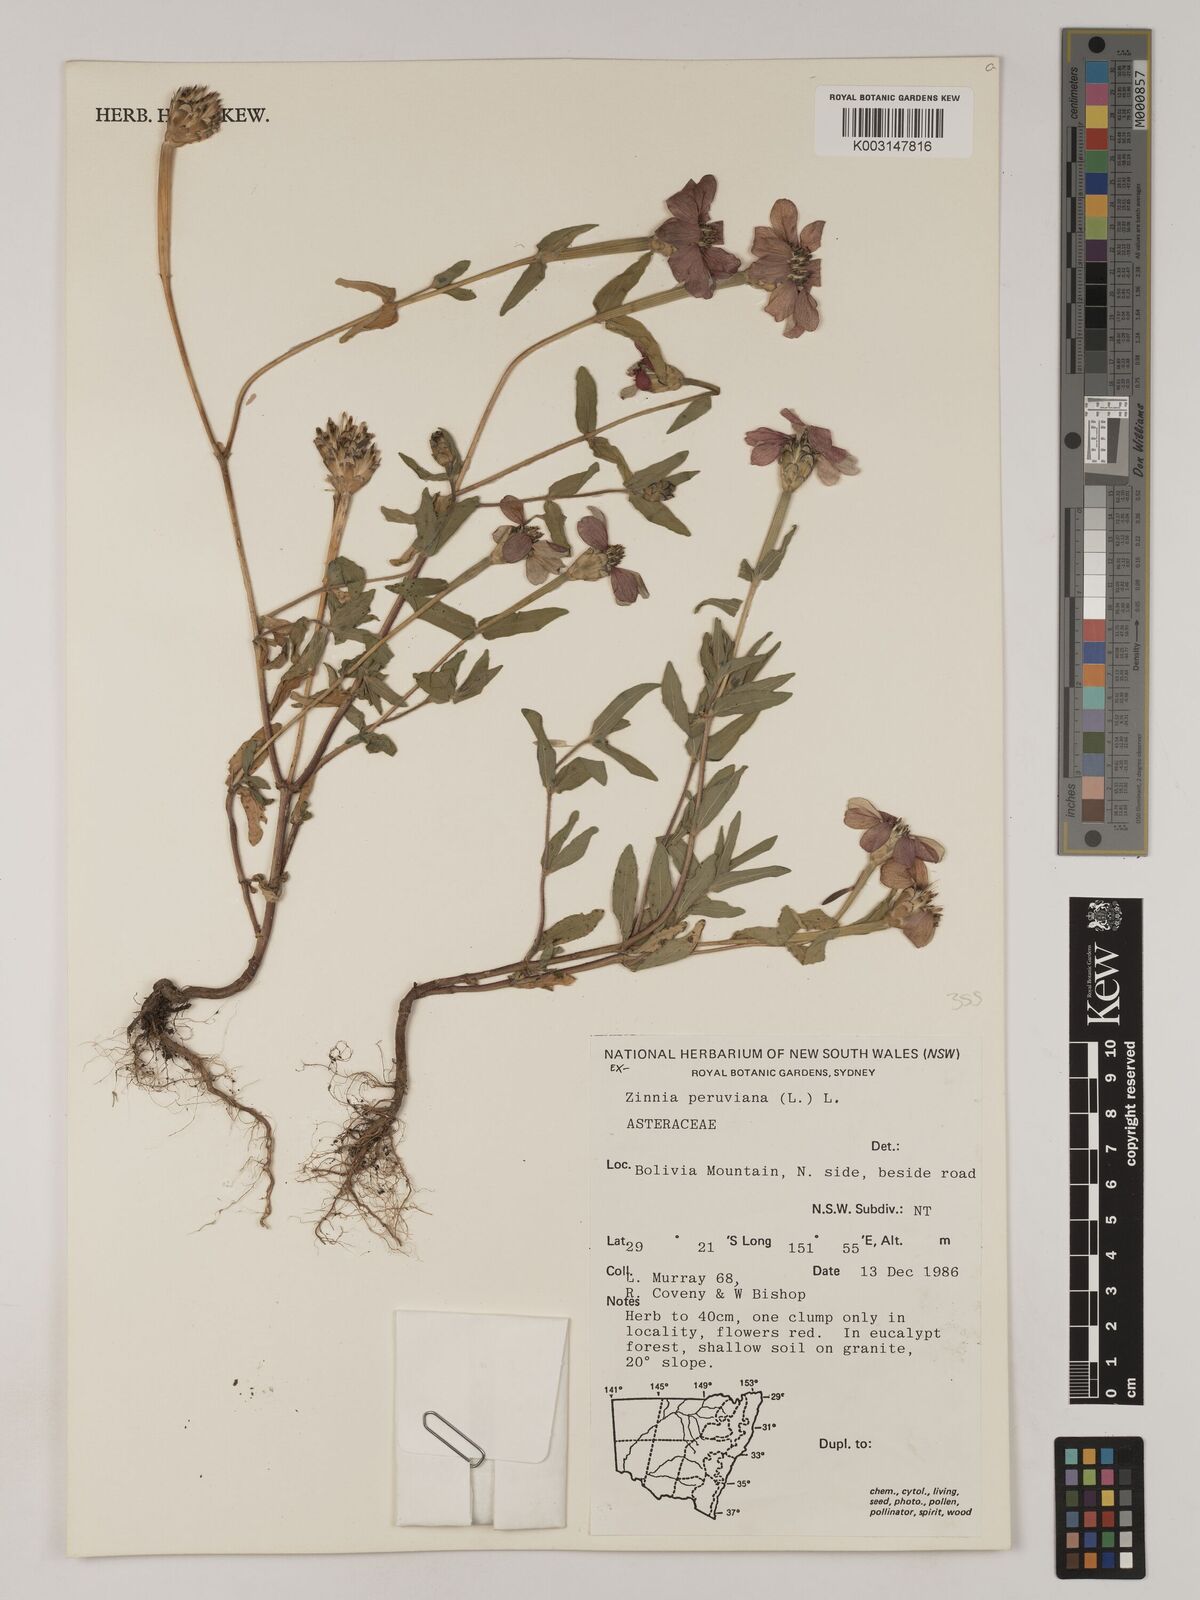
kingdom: Plantae
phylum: Tracheophyta
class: Magnoliopsida
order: Asterales
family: Asteraceae
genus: Zinnia
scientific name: Zinnia peruviana
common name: Peruvian zinnia
